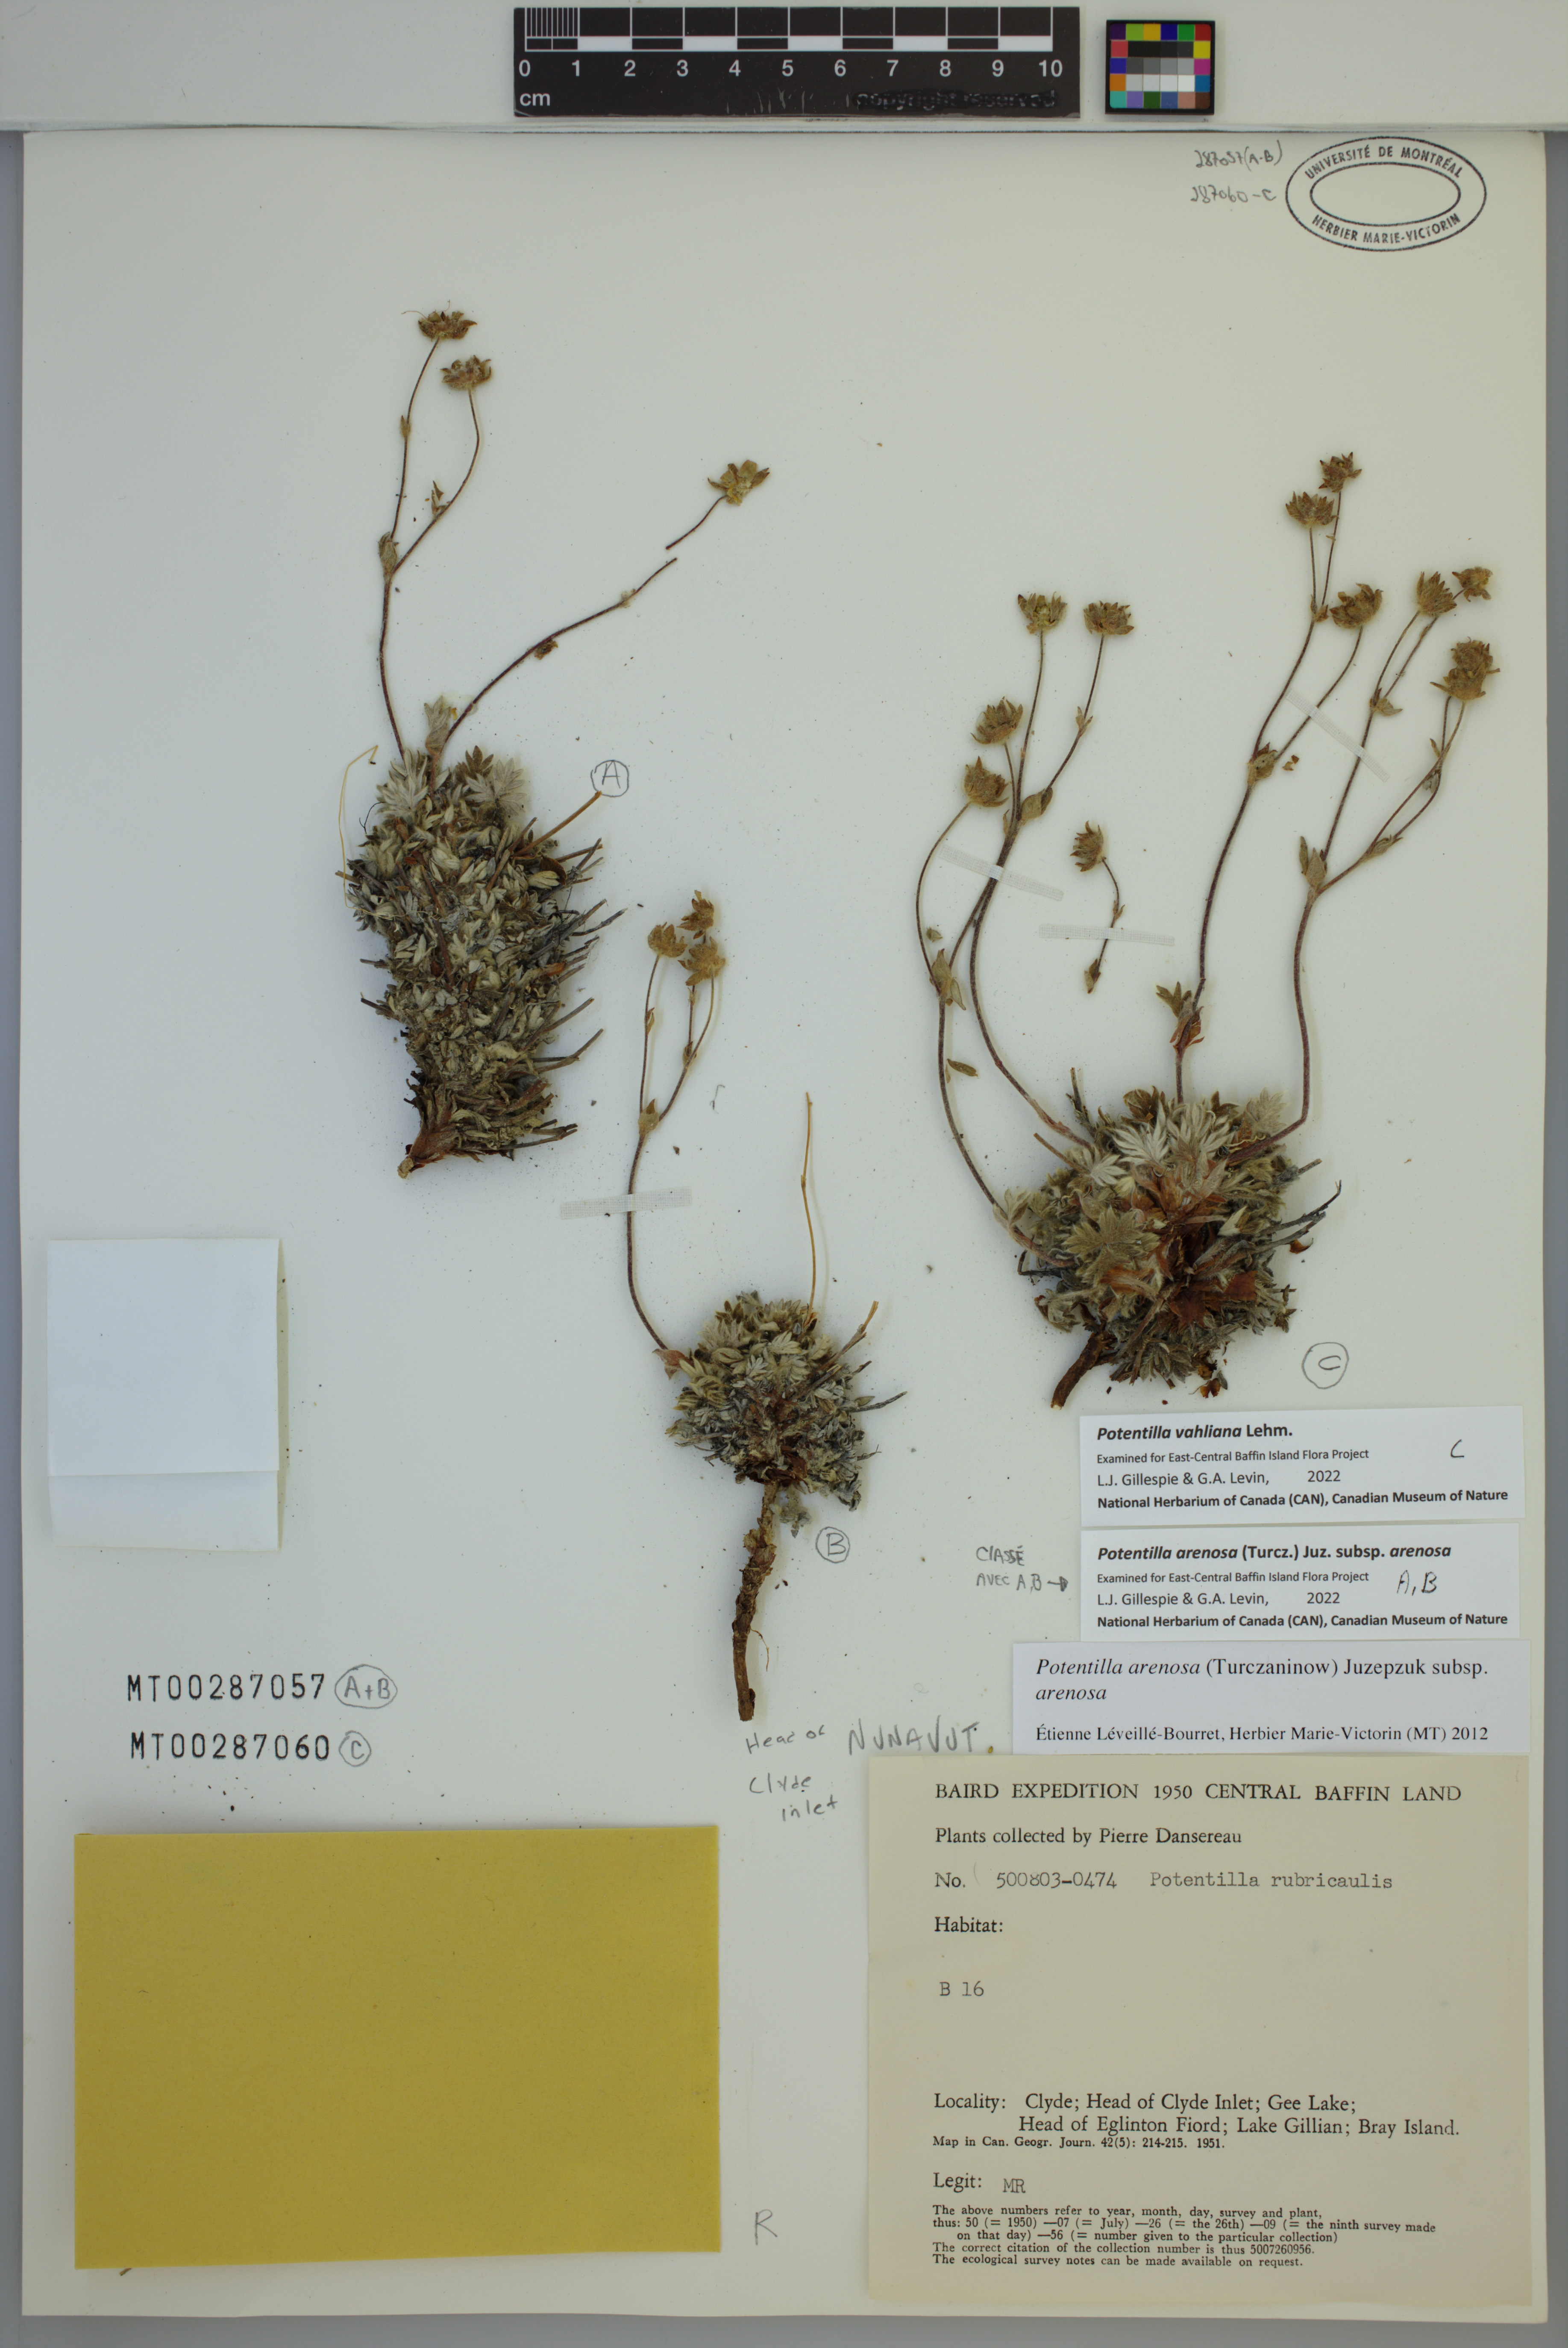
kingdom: Plantae
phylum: Tracheophyta
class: Magnoliopsida
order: Rosales
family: Rosaceae
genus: Potentilla
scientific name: Potentilla vahliana
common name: Vahl's cinquefoil
